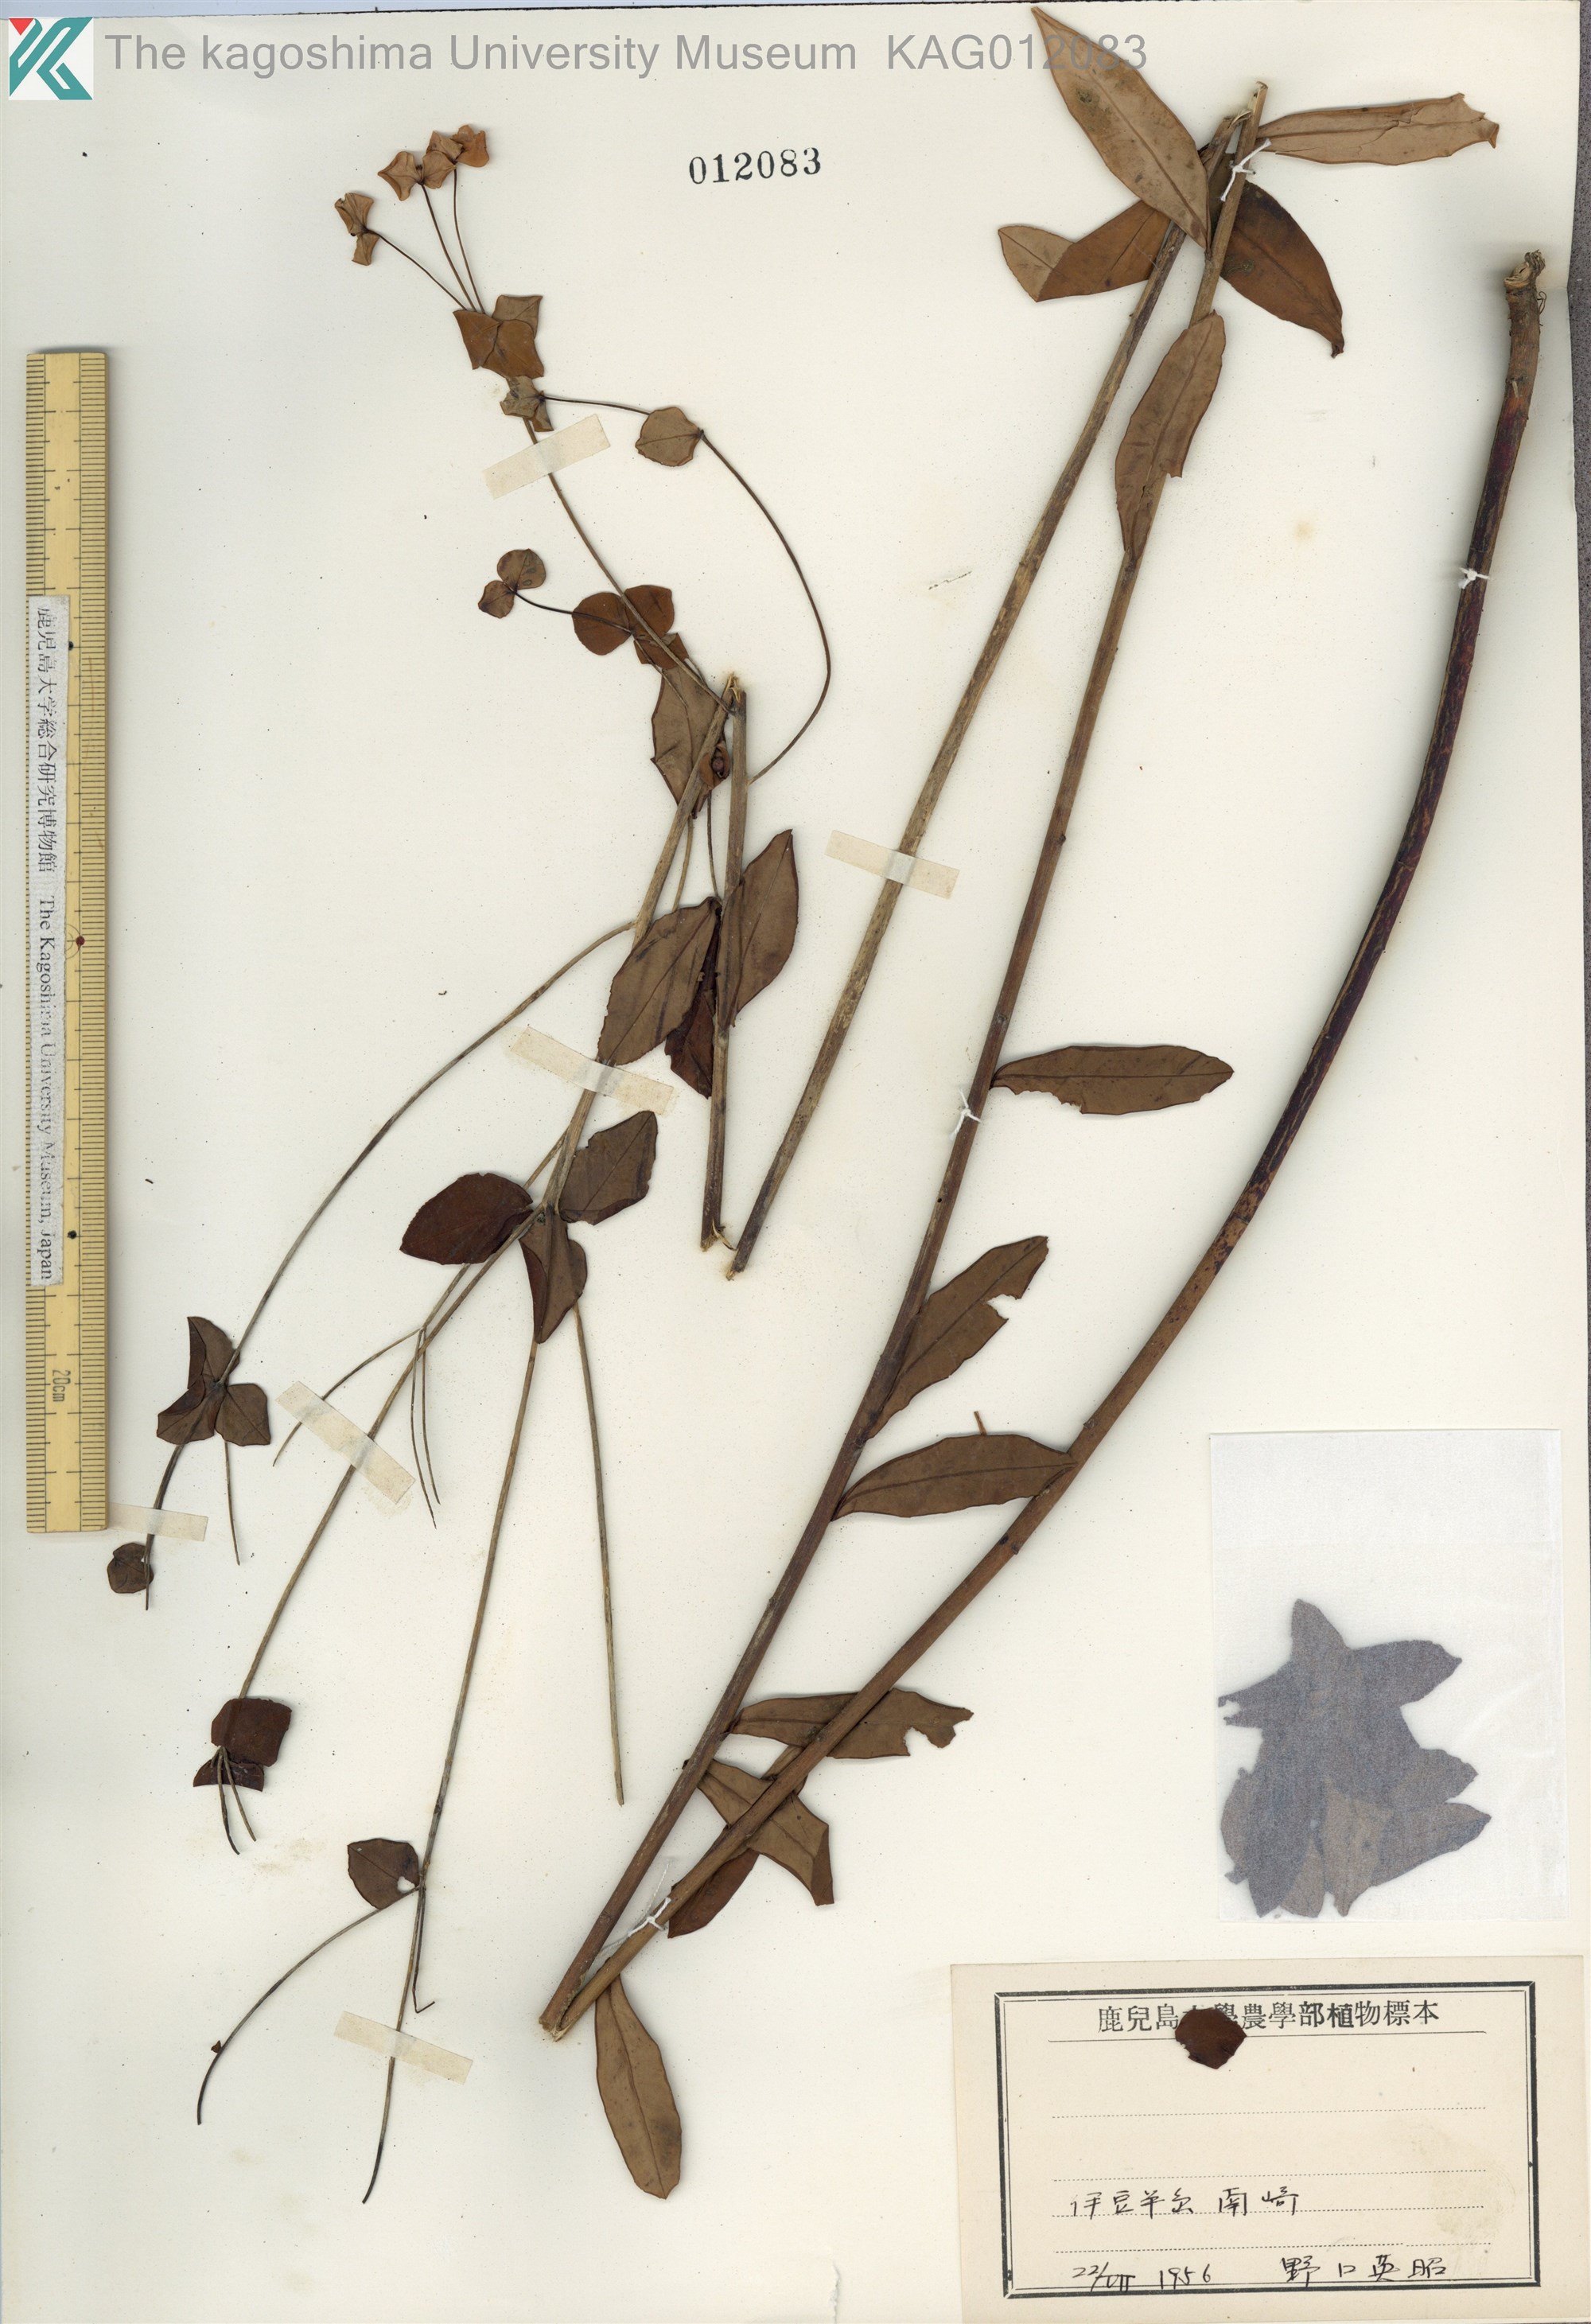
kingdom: Plantae
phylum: Tracheophyta
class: Magnoliopsida
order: Malpighiales
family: Euphorbiaceae
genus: Euphorbia
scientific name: Euphorbia pekinensis
